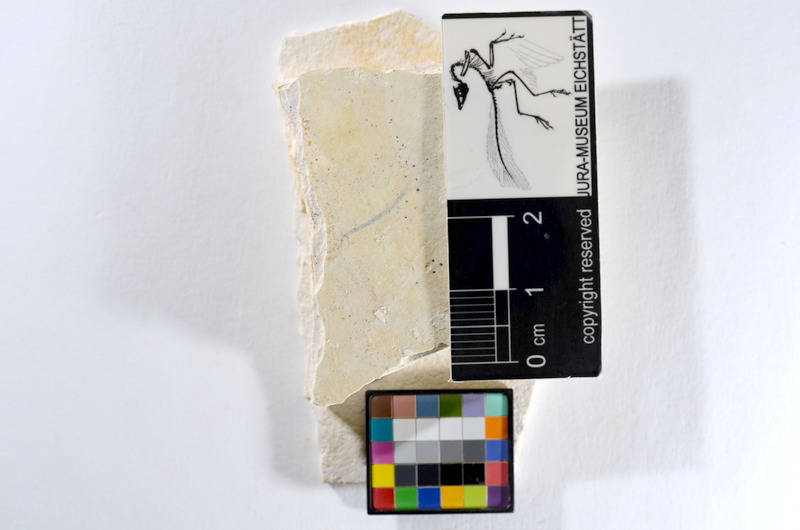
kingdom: Animalia
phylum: Chordata
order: Salmoniformes
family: Orthogonikleithridae
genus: Orthogonikleithrus
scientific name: Orthogonikleithrus hoelli
